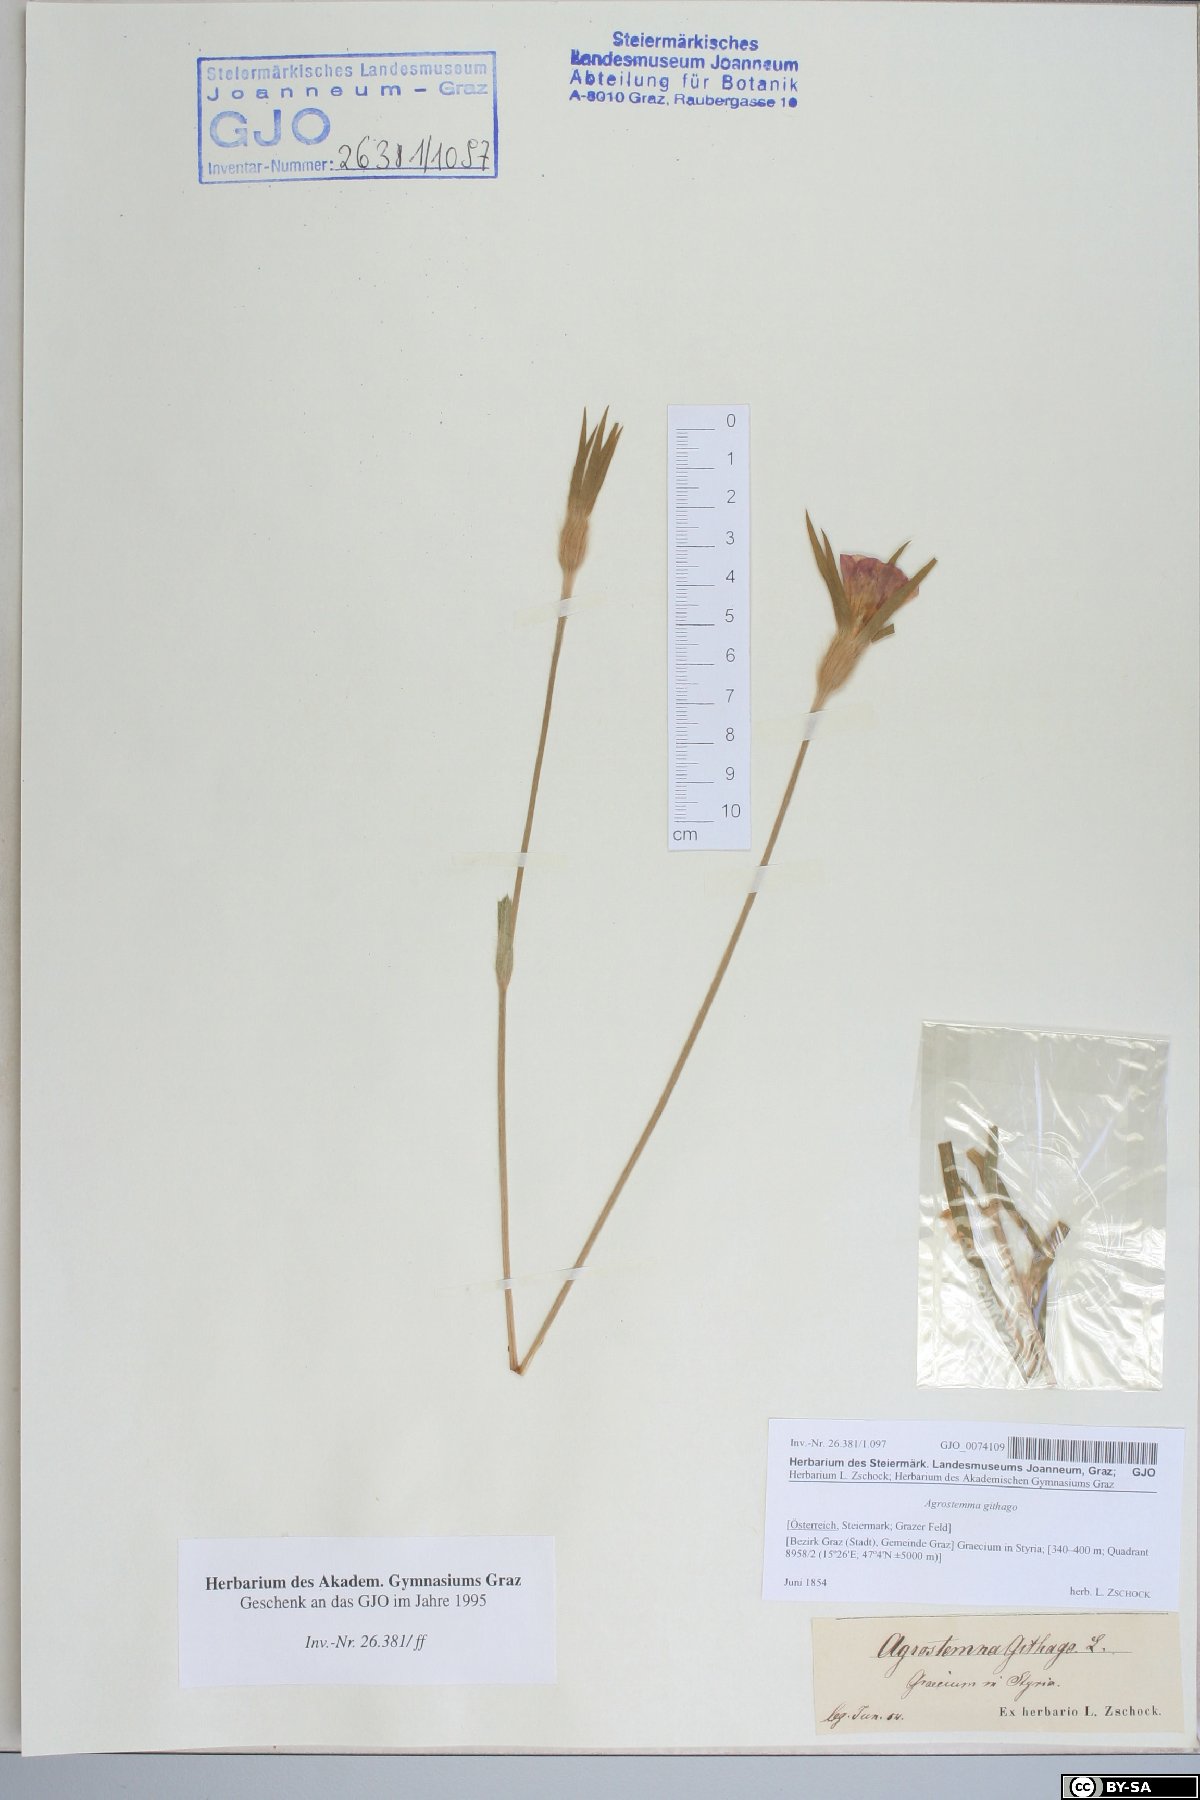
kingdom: Plantae
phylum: Tracheophyta
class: Magnoliopsida
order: Caryophyllales
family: Caryophyllaceae
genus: Agrostemma
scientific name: Agrostemma githago
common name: Common corncockle
